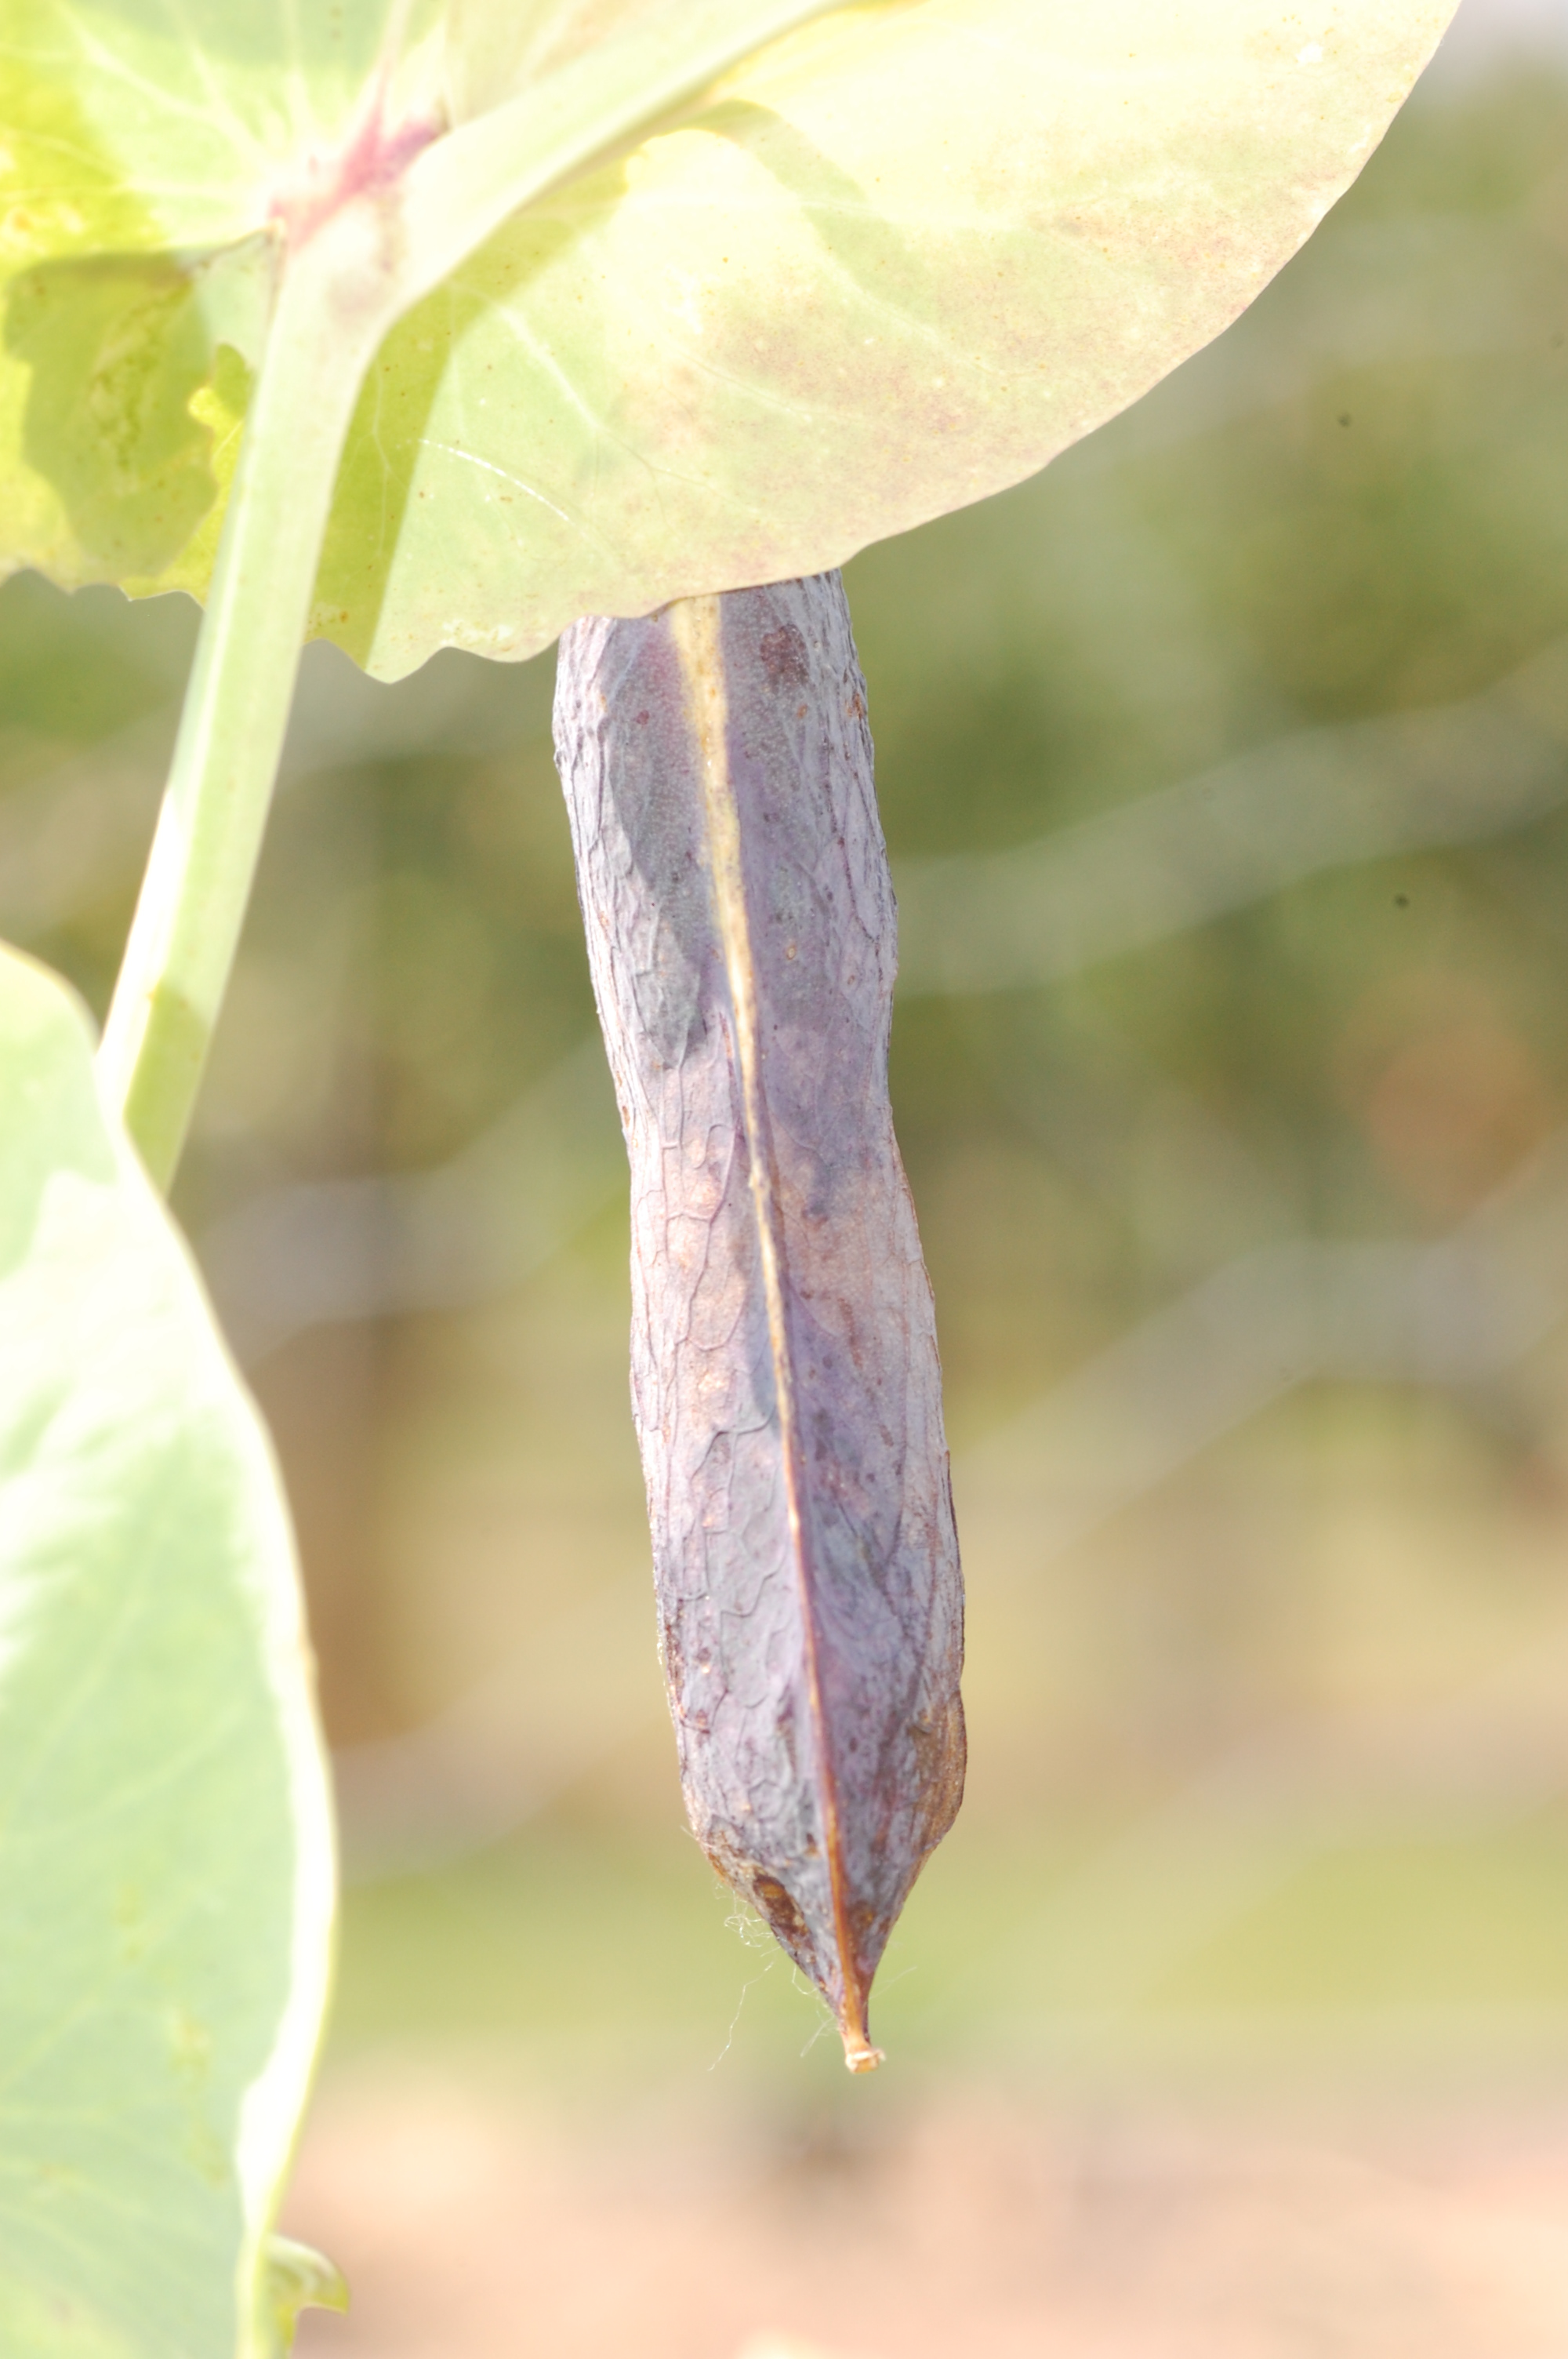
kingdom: Plantae
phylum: Tracheophyta
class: Magnoliopsida
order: Fabales
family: Fabaceae
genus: Lathyrus
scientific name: Lathyrus oleraceus
